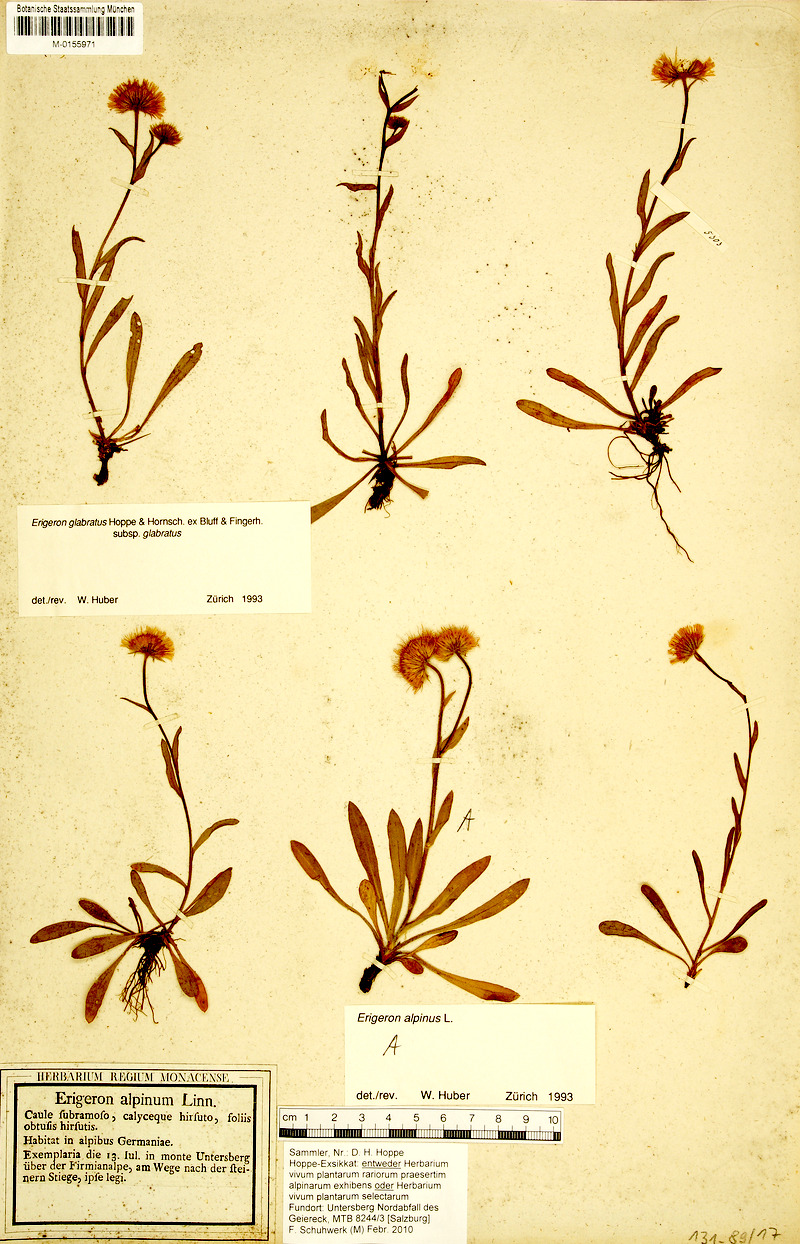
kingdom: Plantae
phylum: Tracheophyta
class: Magnoliopsida
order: Asterales
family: Asteraceae
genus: Erigeron
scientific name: Erigeron alpinus
